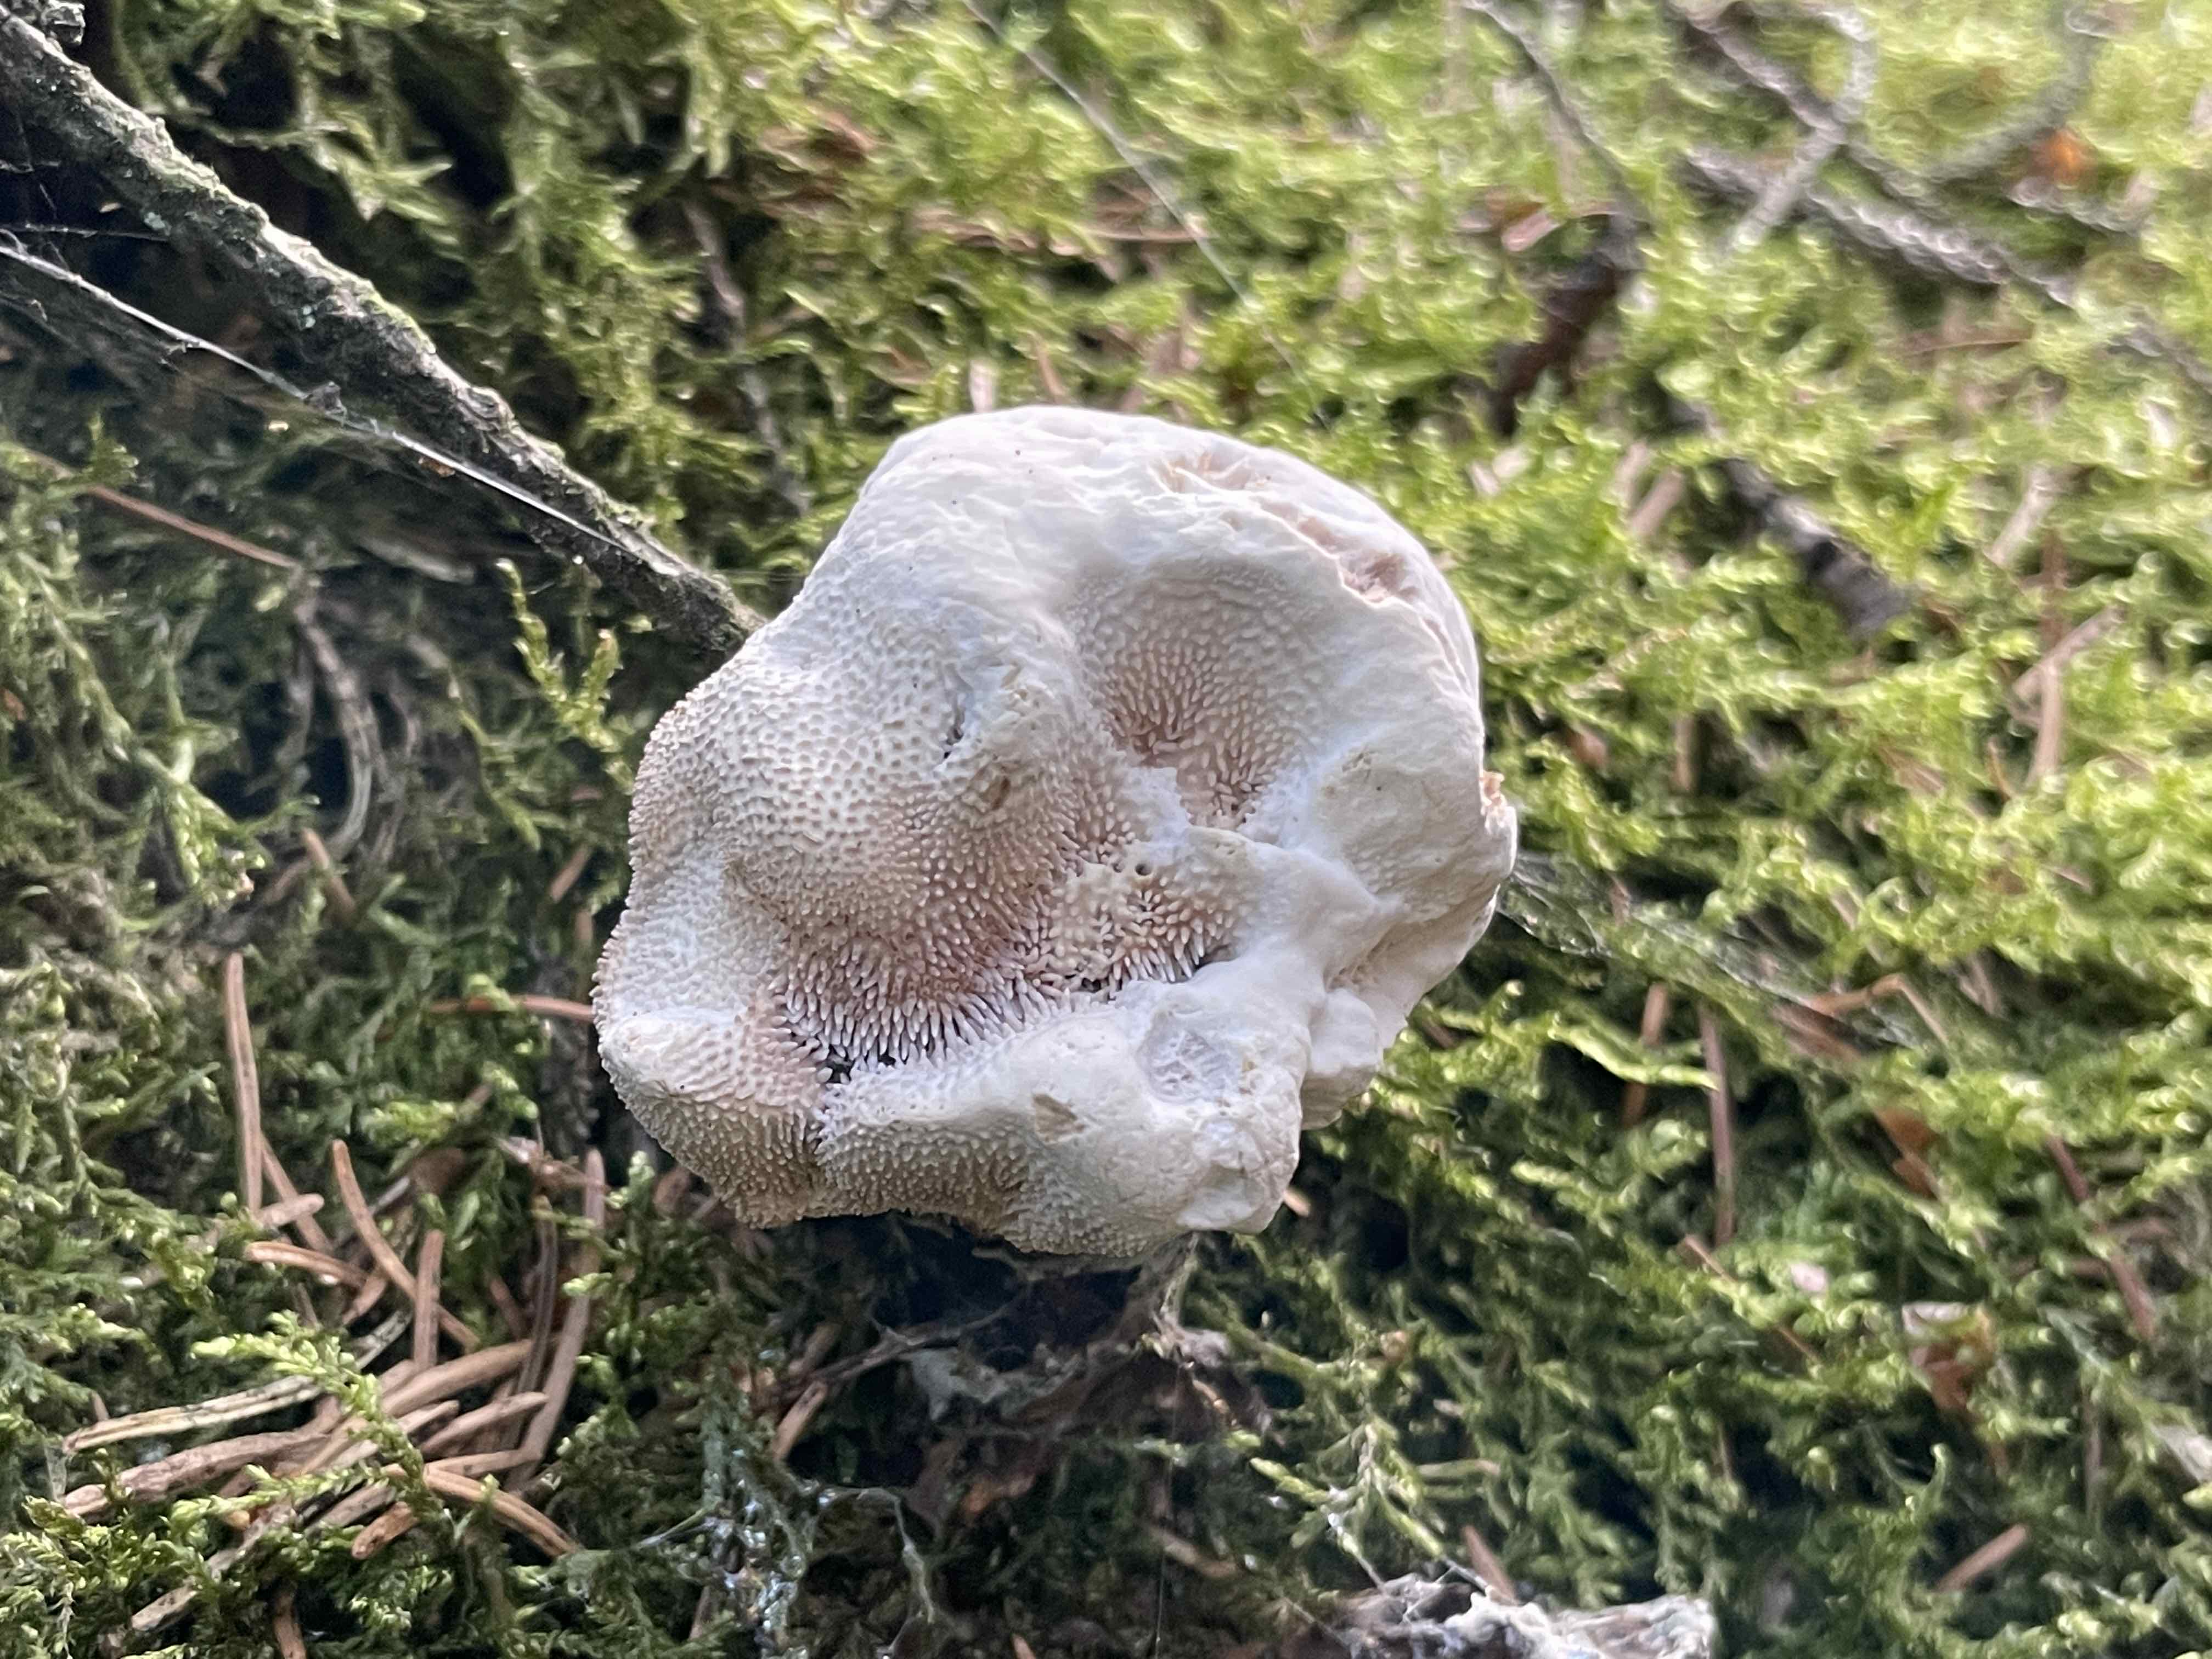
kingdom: Fungi
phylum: Basidiomycota
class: Agaricomycetes
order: Thelephorales
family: Bankeraceae
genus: Hydnellum
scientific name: Hydnellum caeruleum
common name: blålig korkpigsvamp
